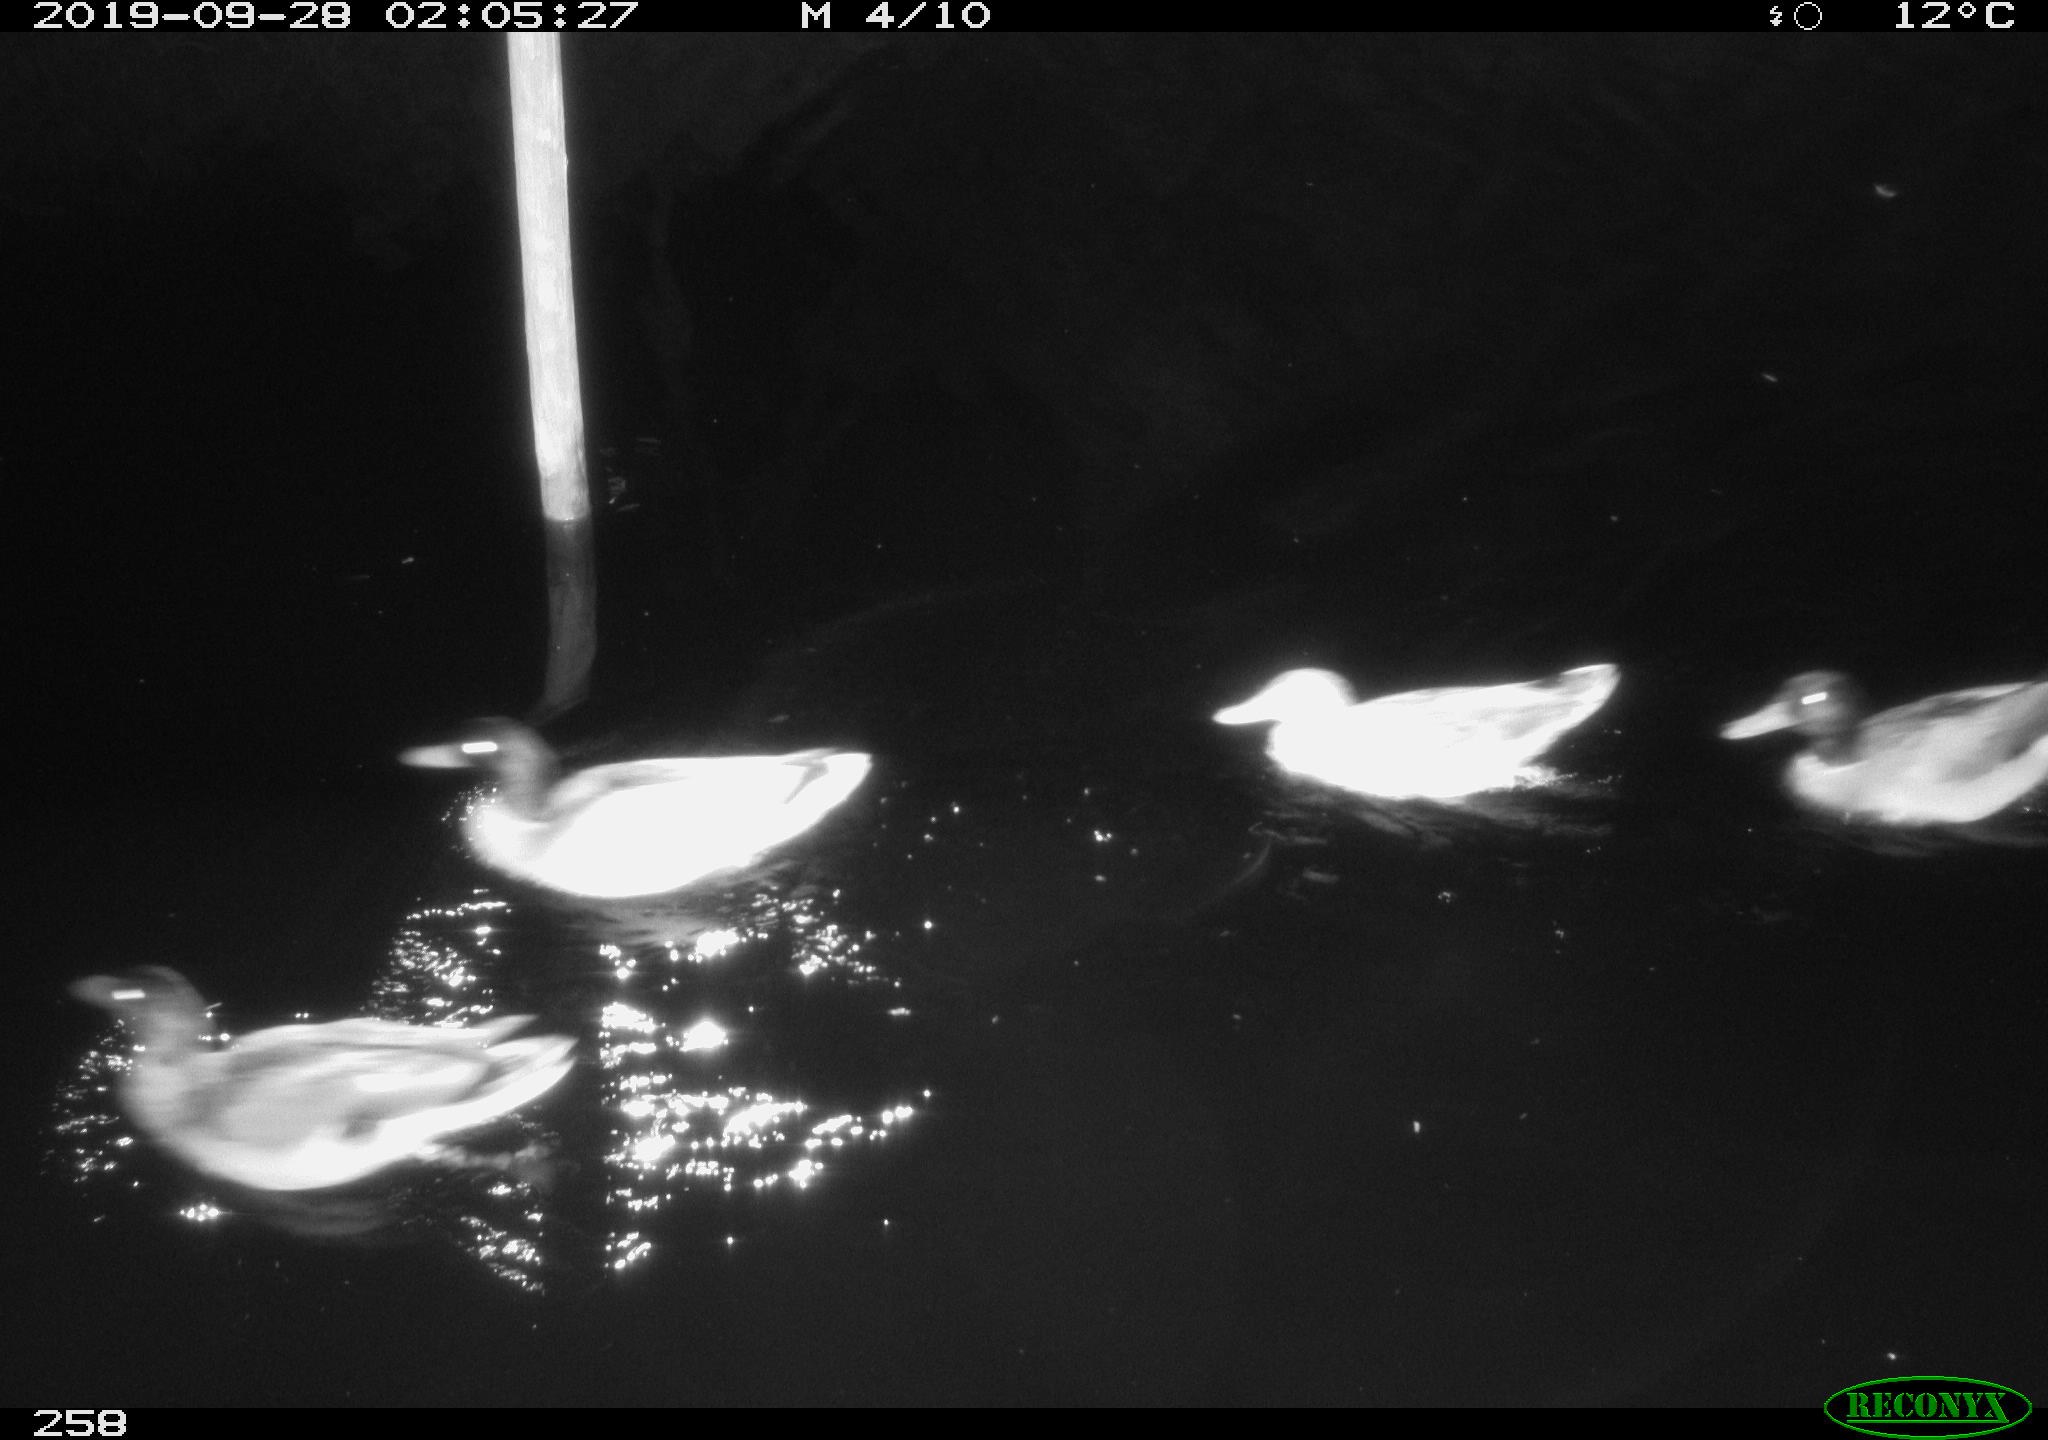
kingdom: Animalia
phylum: Chordata
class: Aves
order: Anseriformes
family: Anatidae
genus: Anas
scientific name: Anas platyrhynchos
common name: Mallard
